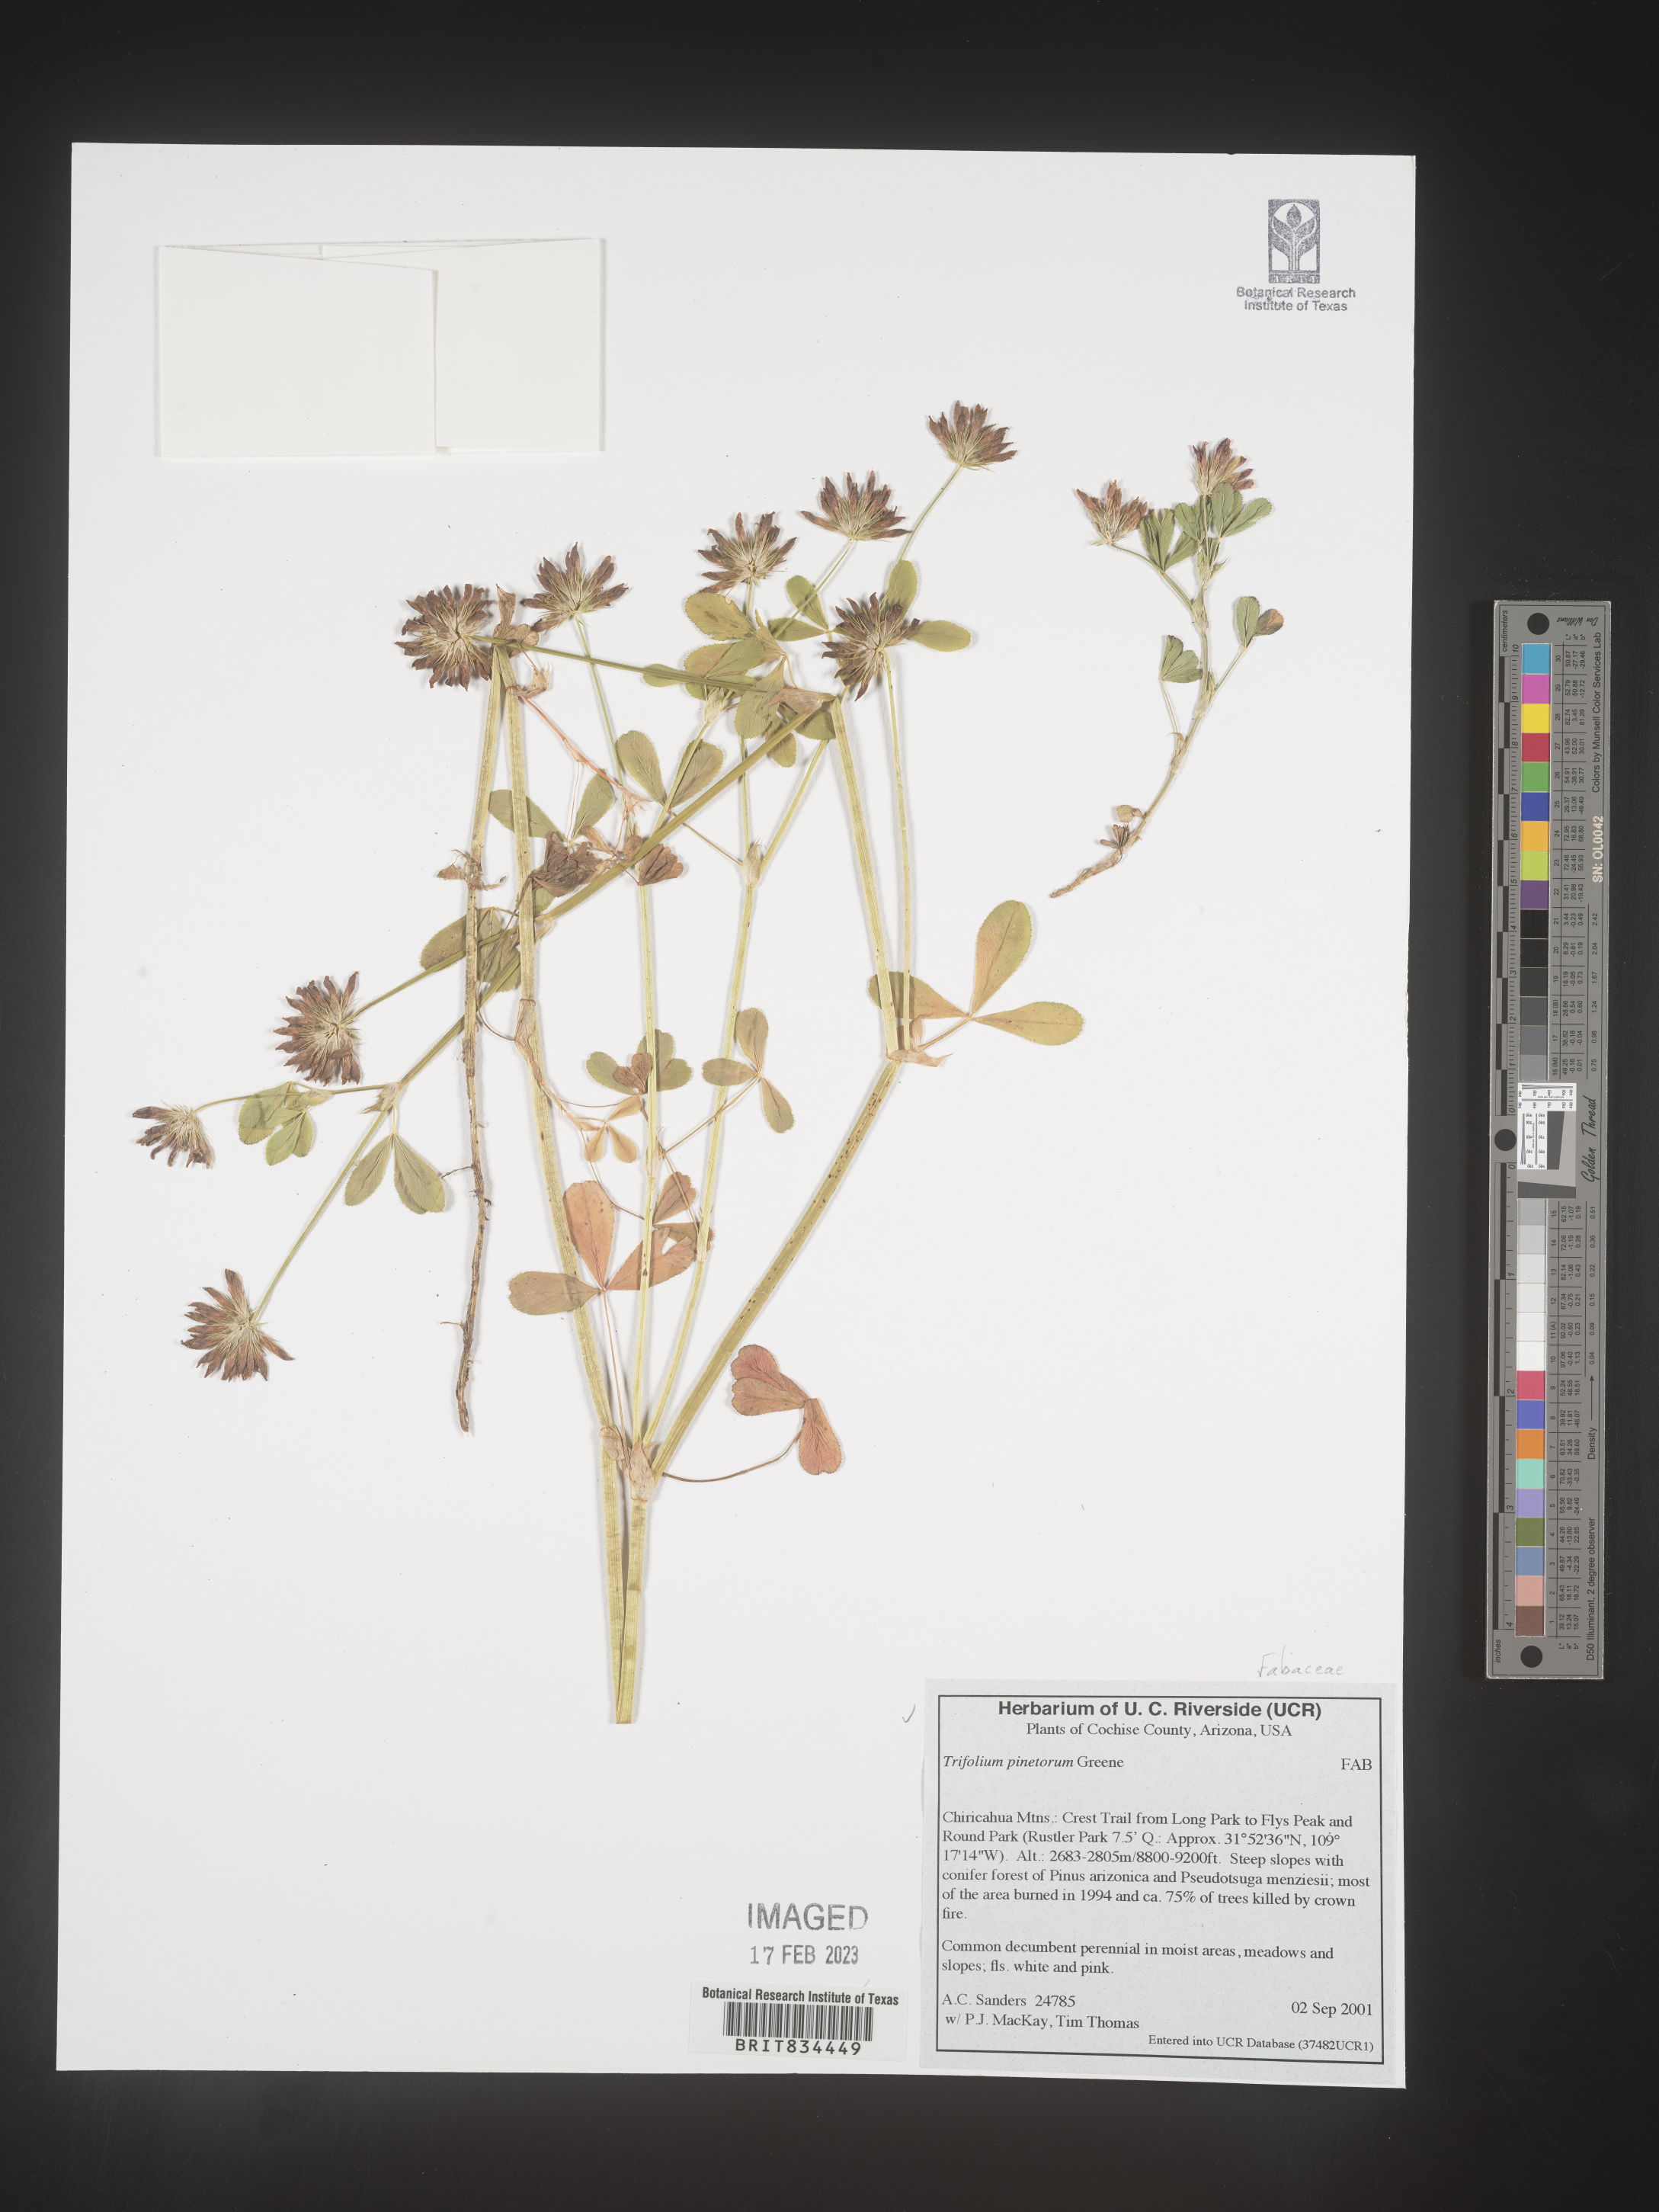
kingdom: Plantae
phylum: Tracheophyta
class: Magnoliopsida
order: Fabales
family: Fabaceae
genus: Trifolium
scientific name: Trifolium
